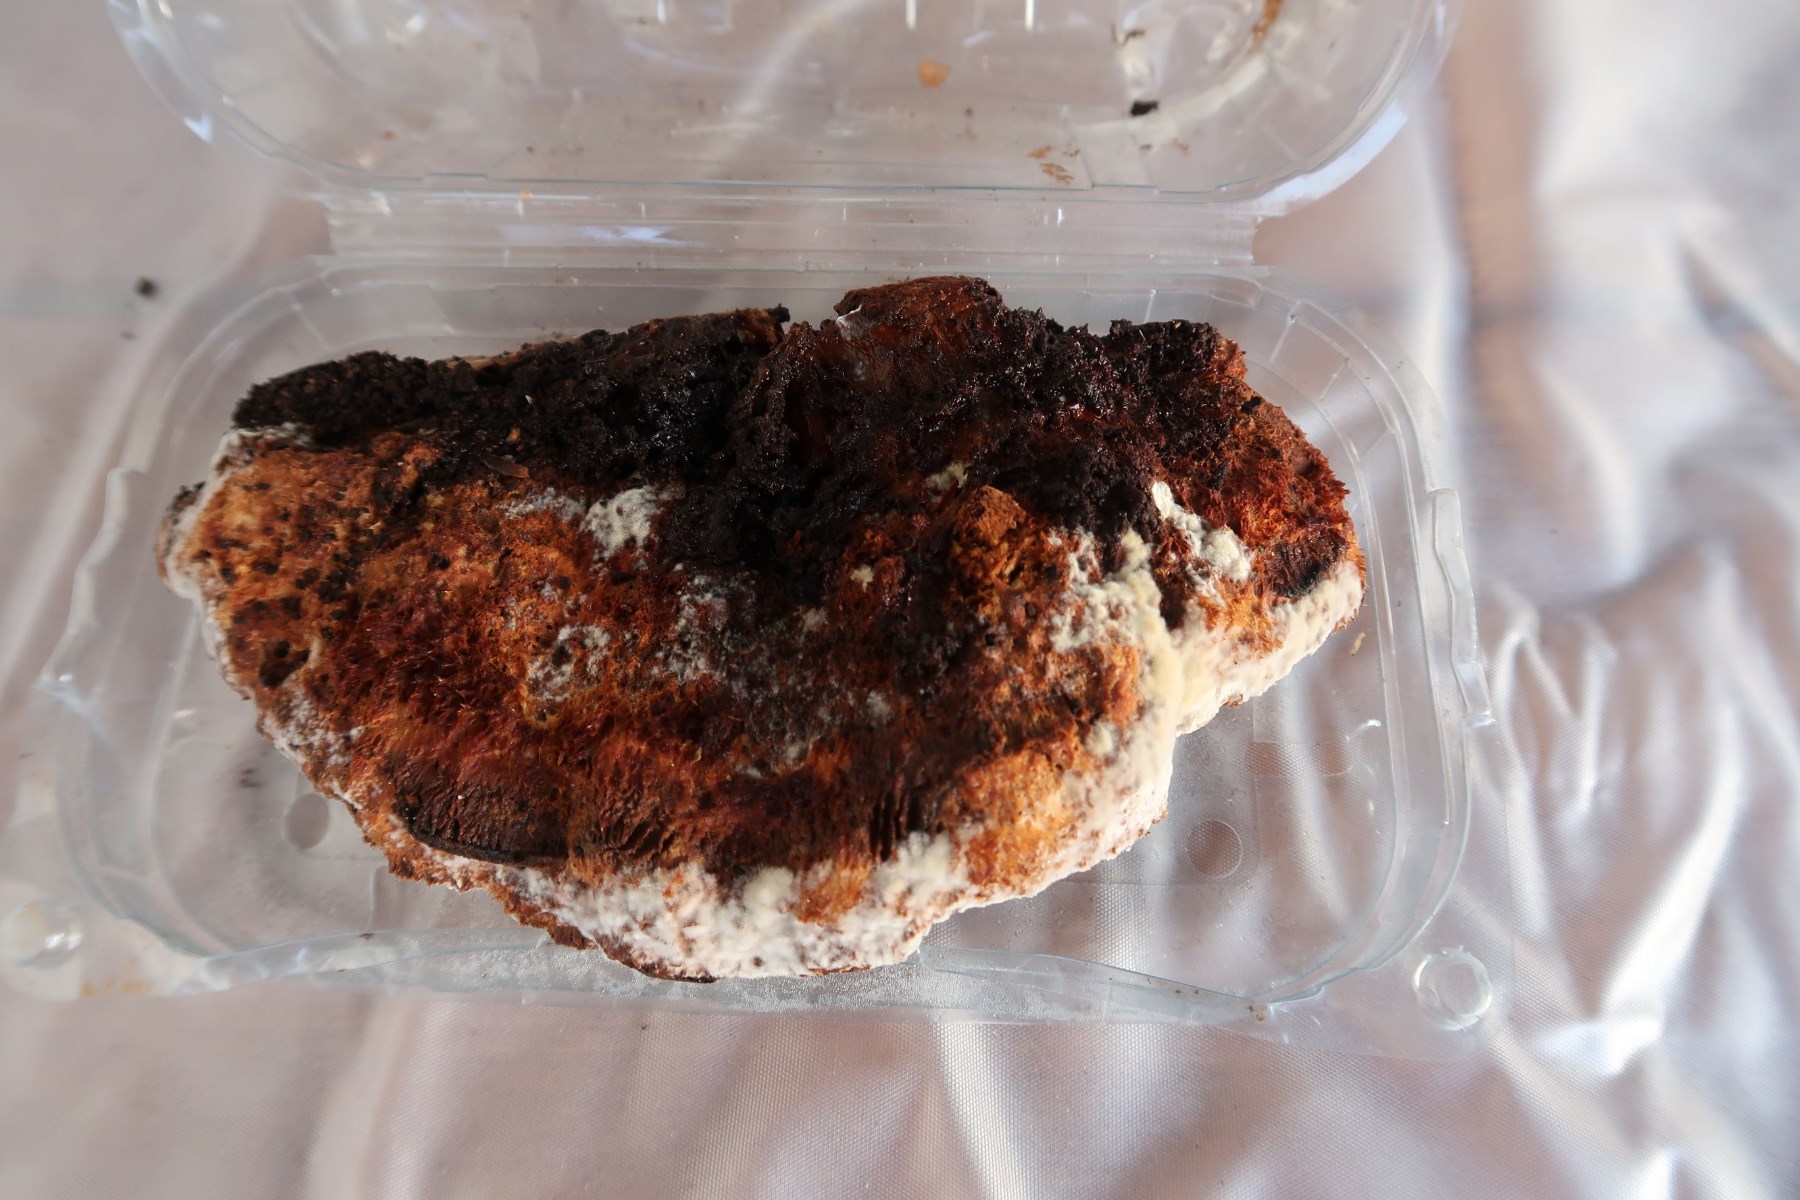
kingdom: Fungi
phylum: Basidiomycota
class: Agaricomycetes
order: Hymenochaetales
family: Hymenochaetaceae
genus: Inonotus
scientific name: Inonotus cuticularis
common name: kroghåret spejlporesvamp
